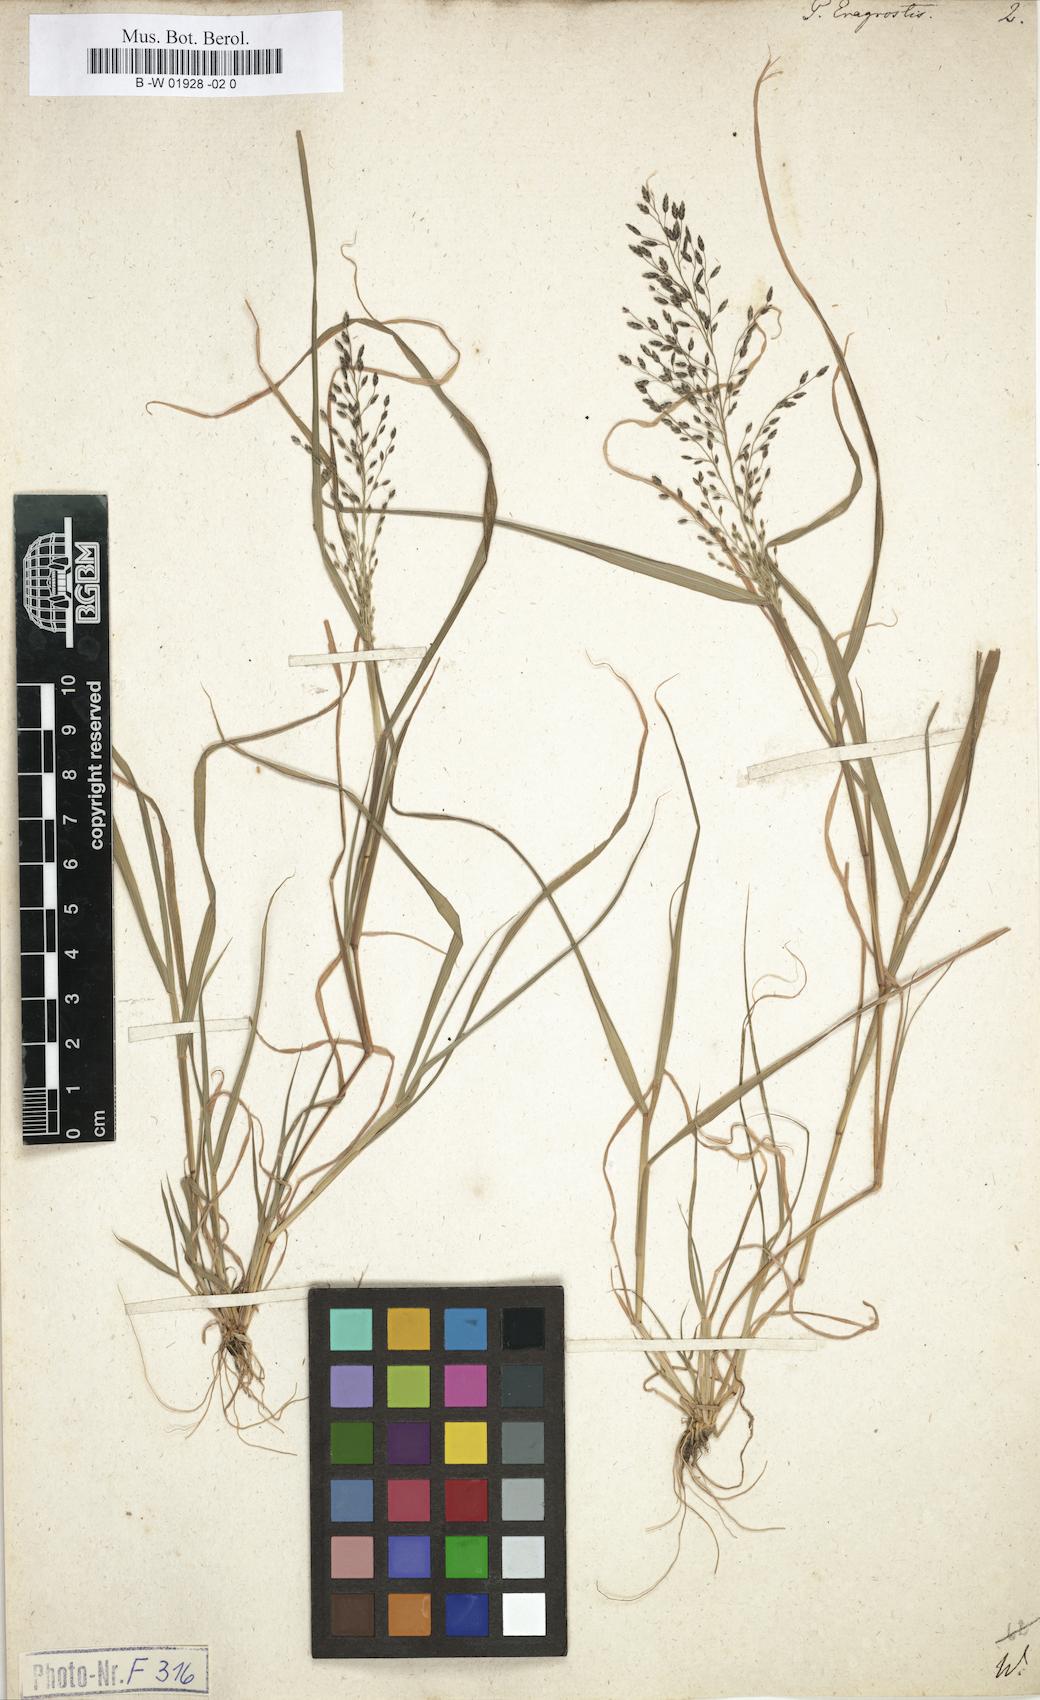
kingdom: Plantae
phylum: Tracheophyta
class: Liliopsida
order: Poales
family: Poaceae
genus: Poa
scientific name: Poa eragrostis
